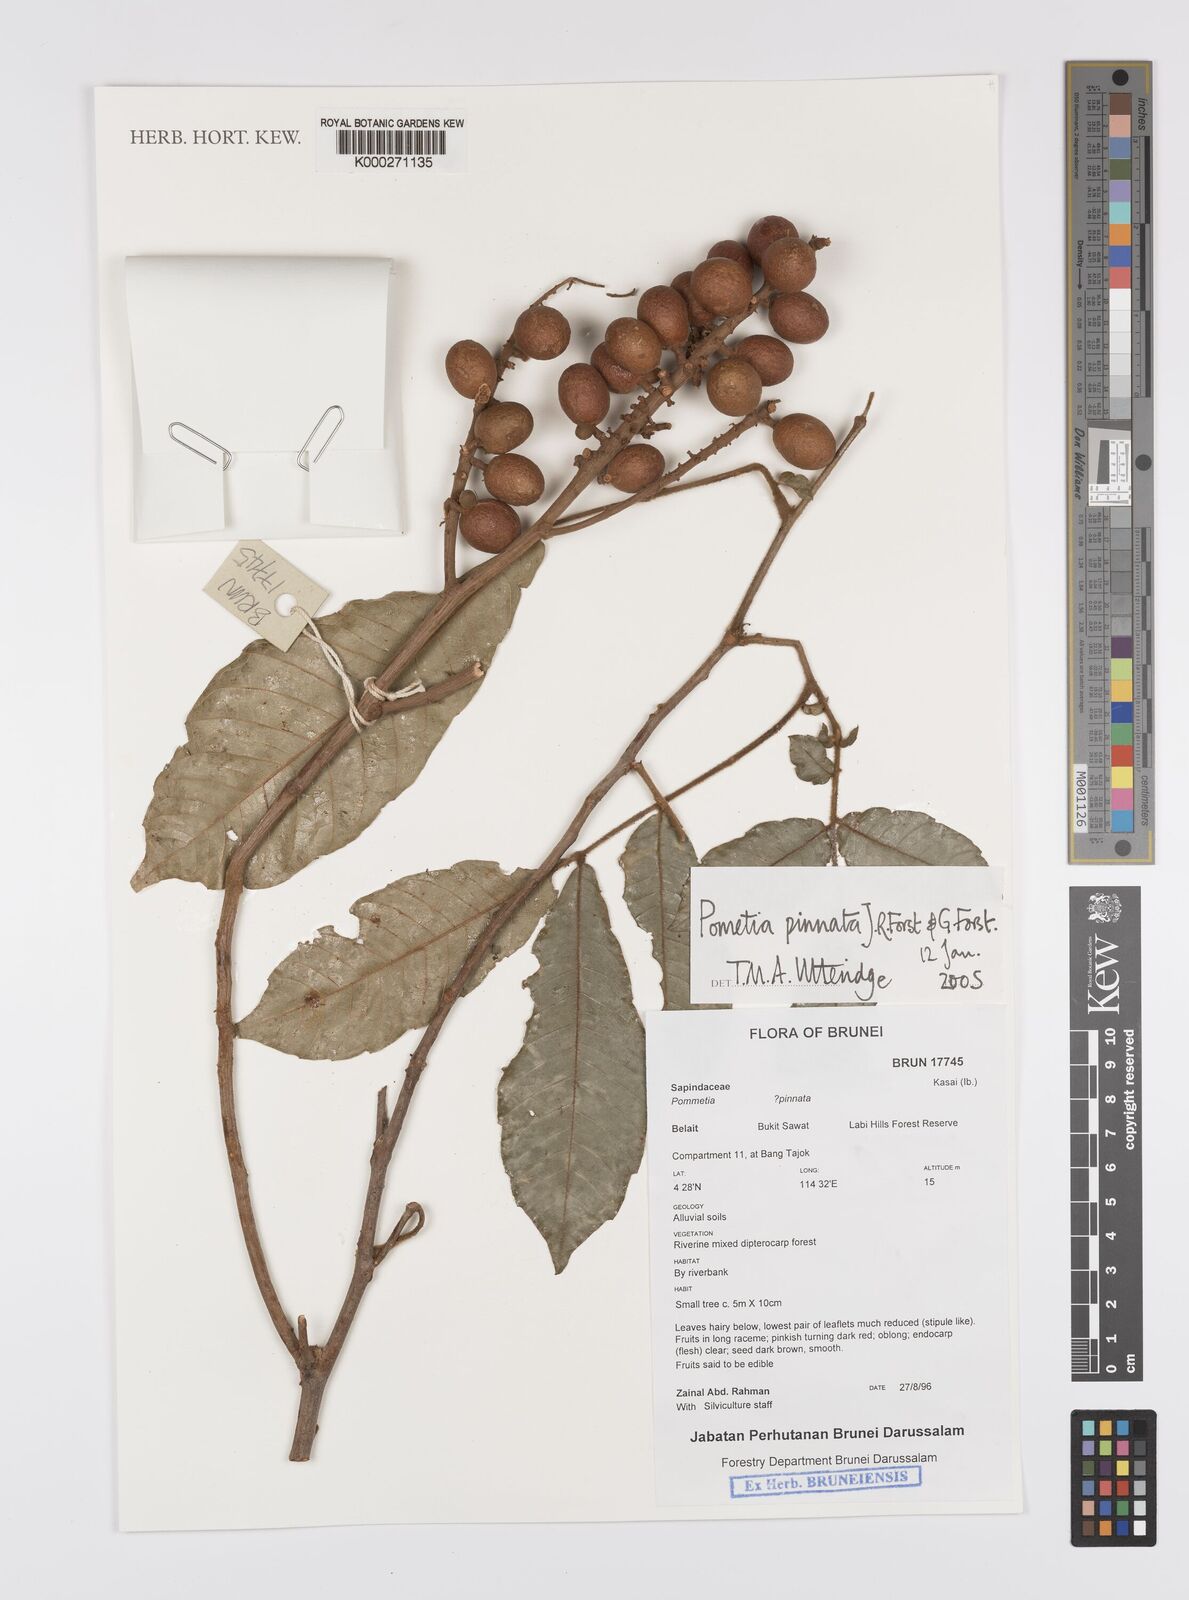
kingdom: Plantae
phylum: Tracheophyta
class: Magnoliopsida
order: Sapindales
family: Sapindaceae
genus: Pometia
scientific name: Pometia pinnata
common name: Oceanic lychee
